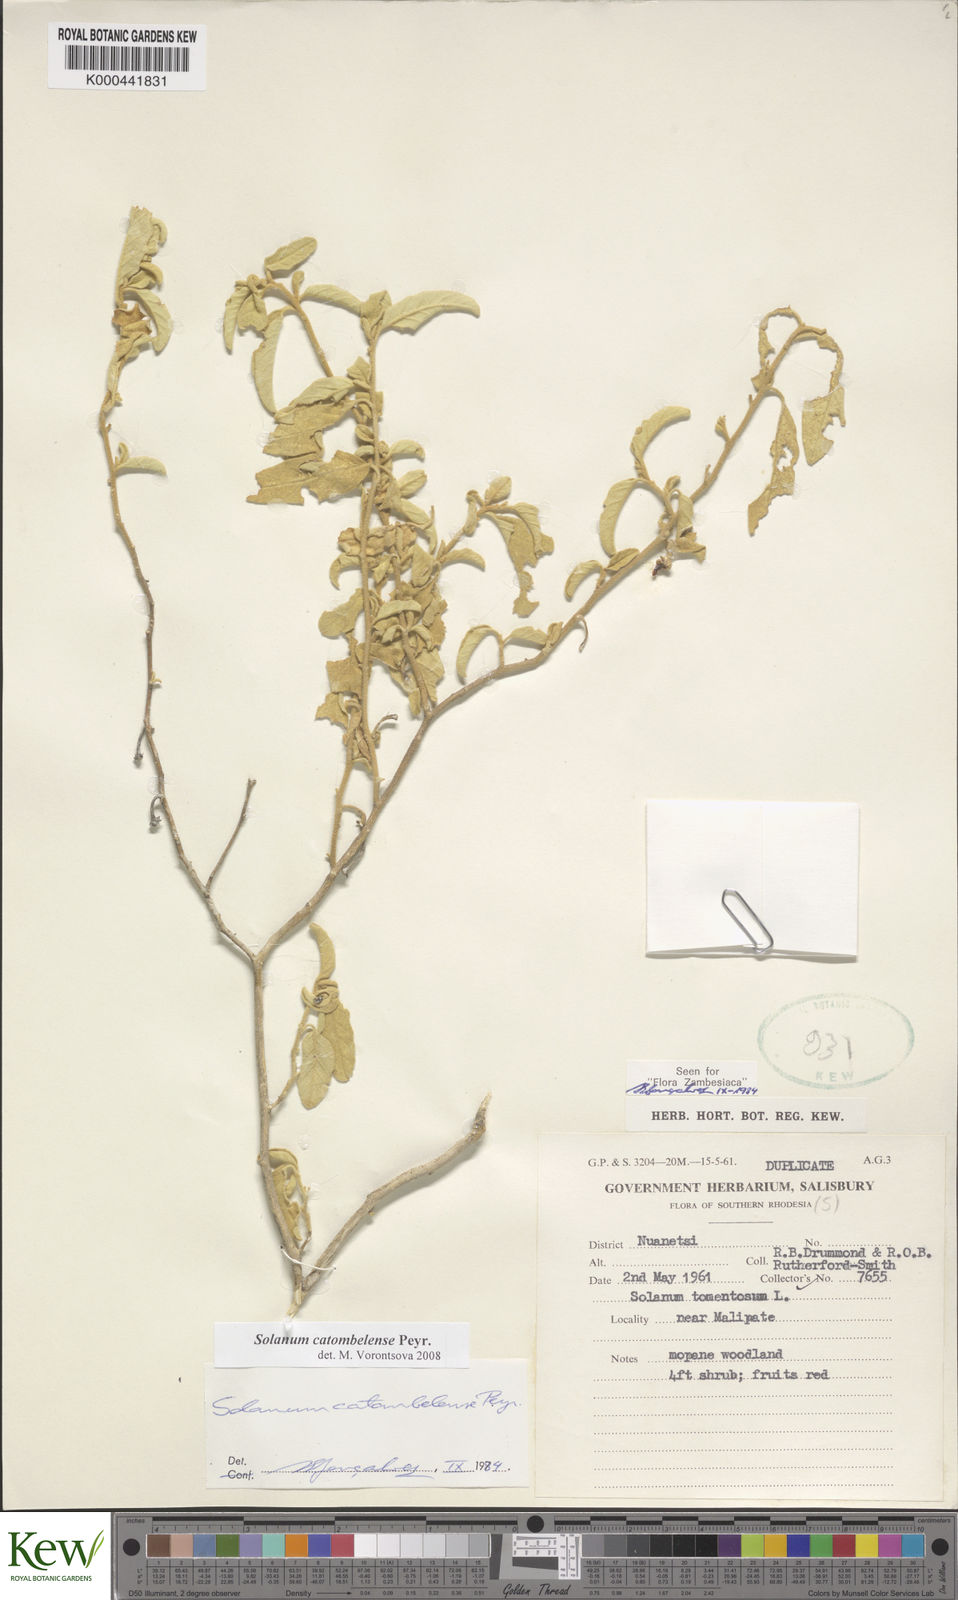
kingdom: Plantae
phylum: Tracheophyta
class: Magnoliopsida
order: Solanales
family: Solanaceae
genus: Solanum
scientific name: Solanum catombelense
